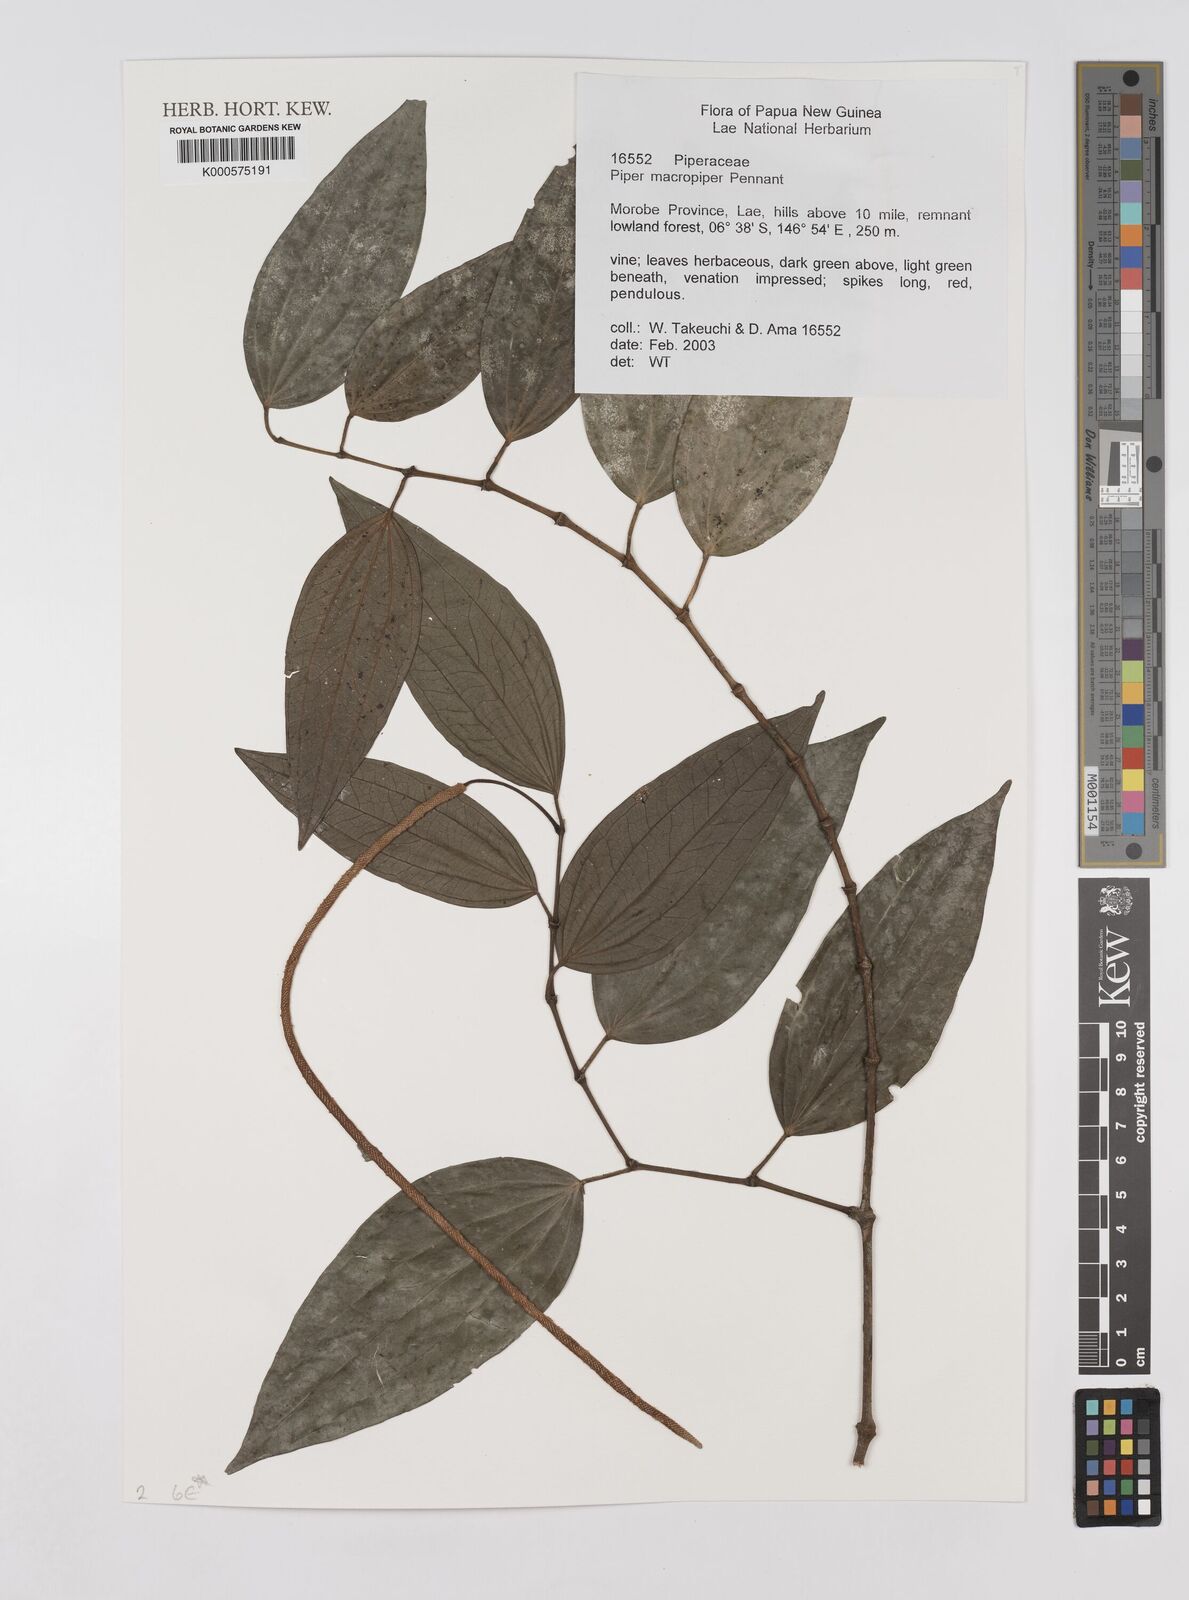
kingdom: Plantae
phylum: Tracheophyta
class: Magnoliopsida
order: Piperales
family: Piperaceae
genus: Piper
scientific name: Piper macropiper
